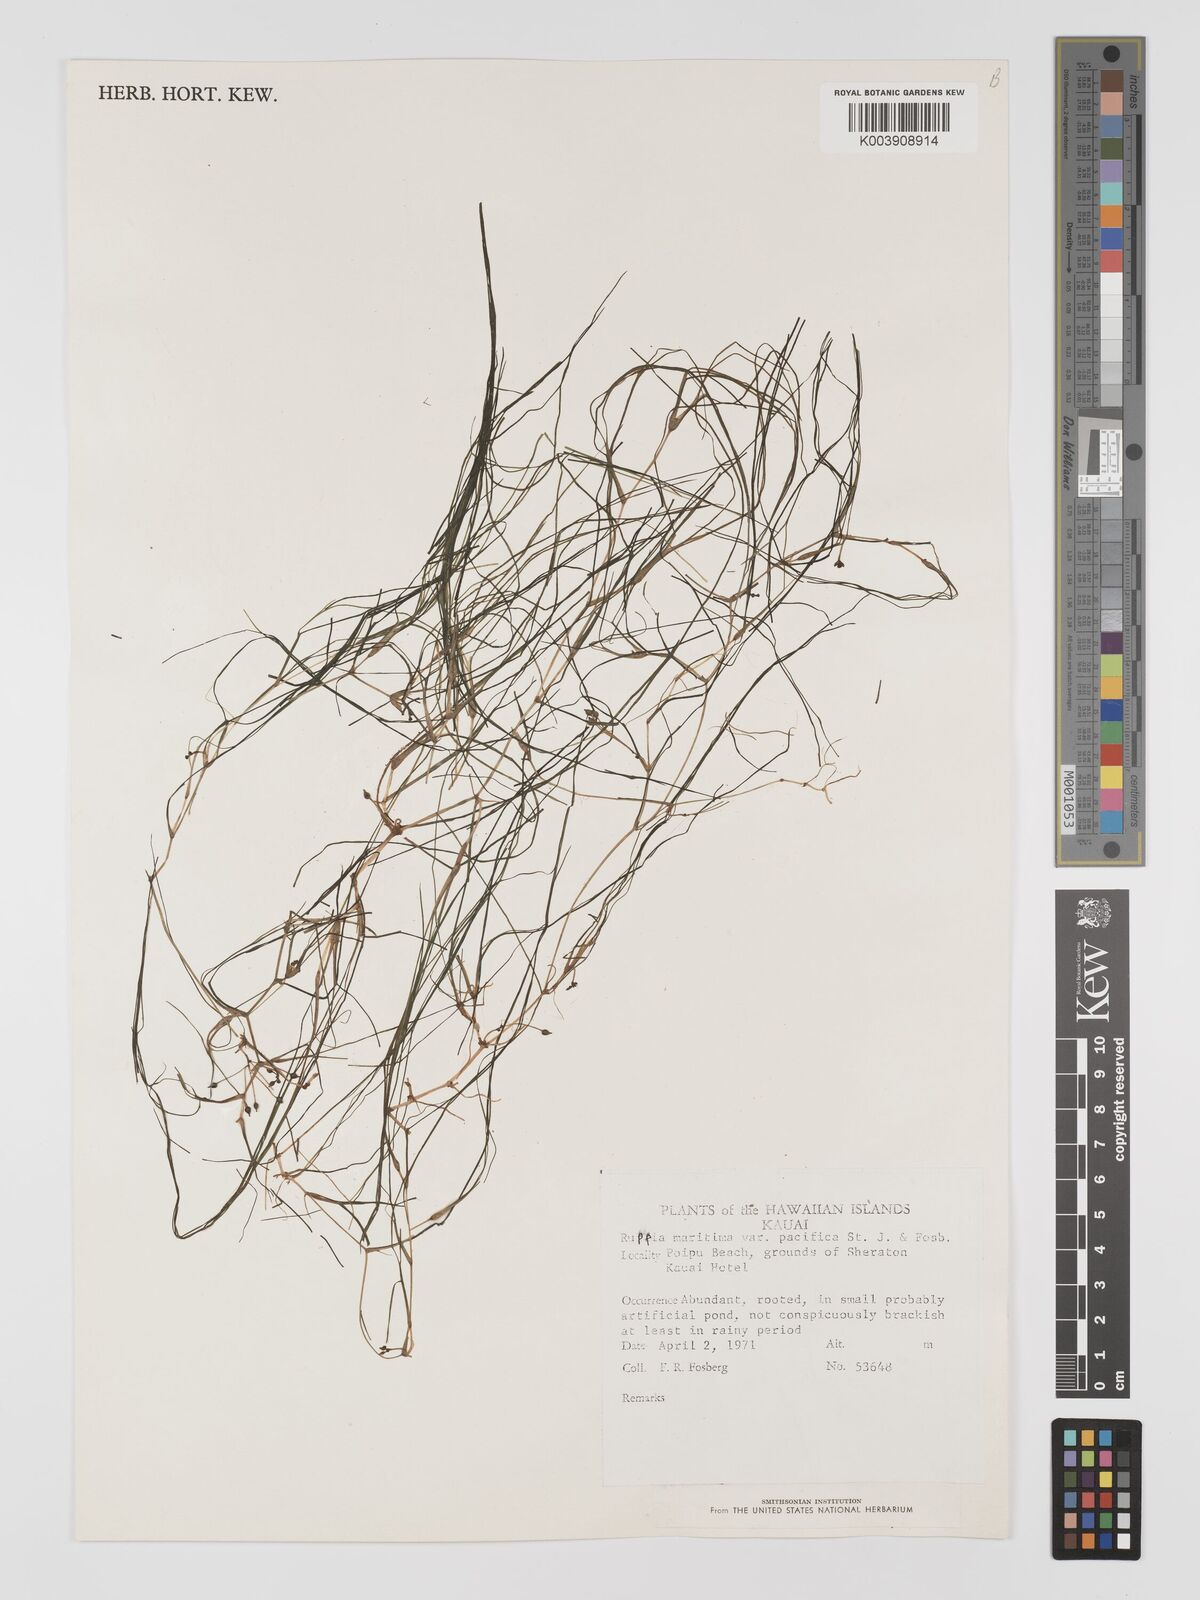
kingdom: Plantae
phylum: Tracheophyta
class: Liliopsida
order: Alismatales
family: Ruppiaceae
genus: Ruppia
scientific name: Ruppia maritima
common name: Beaked tasselweed
